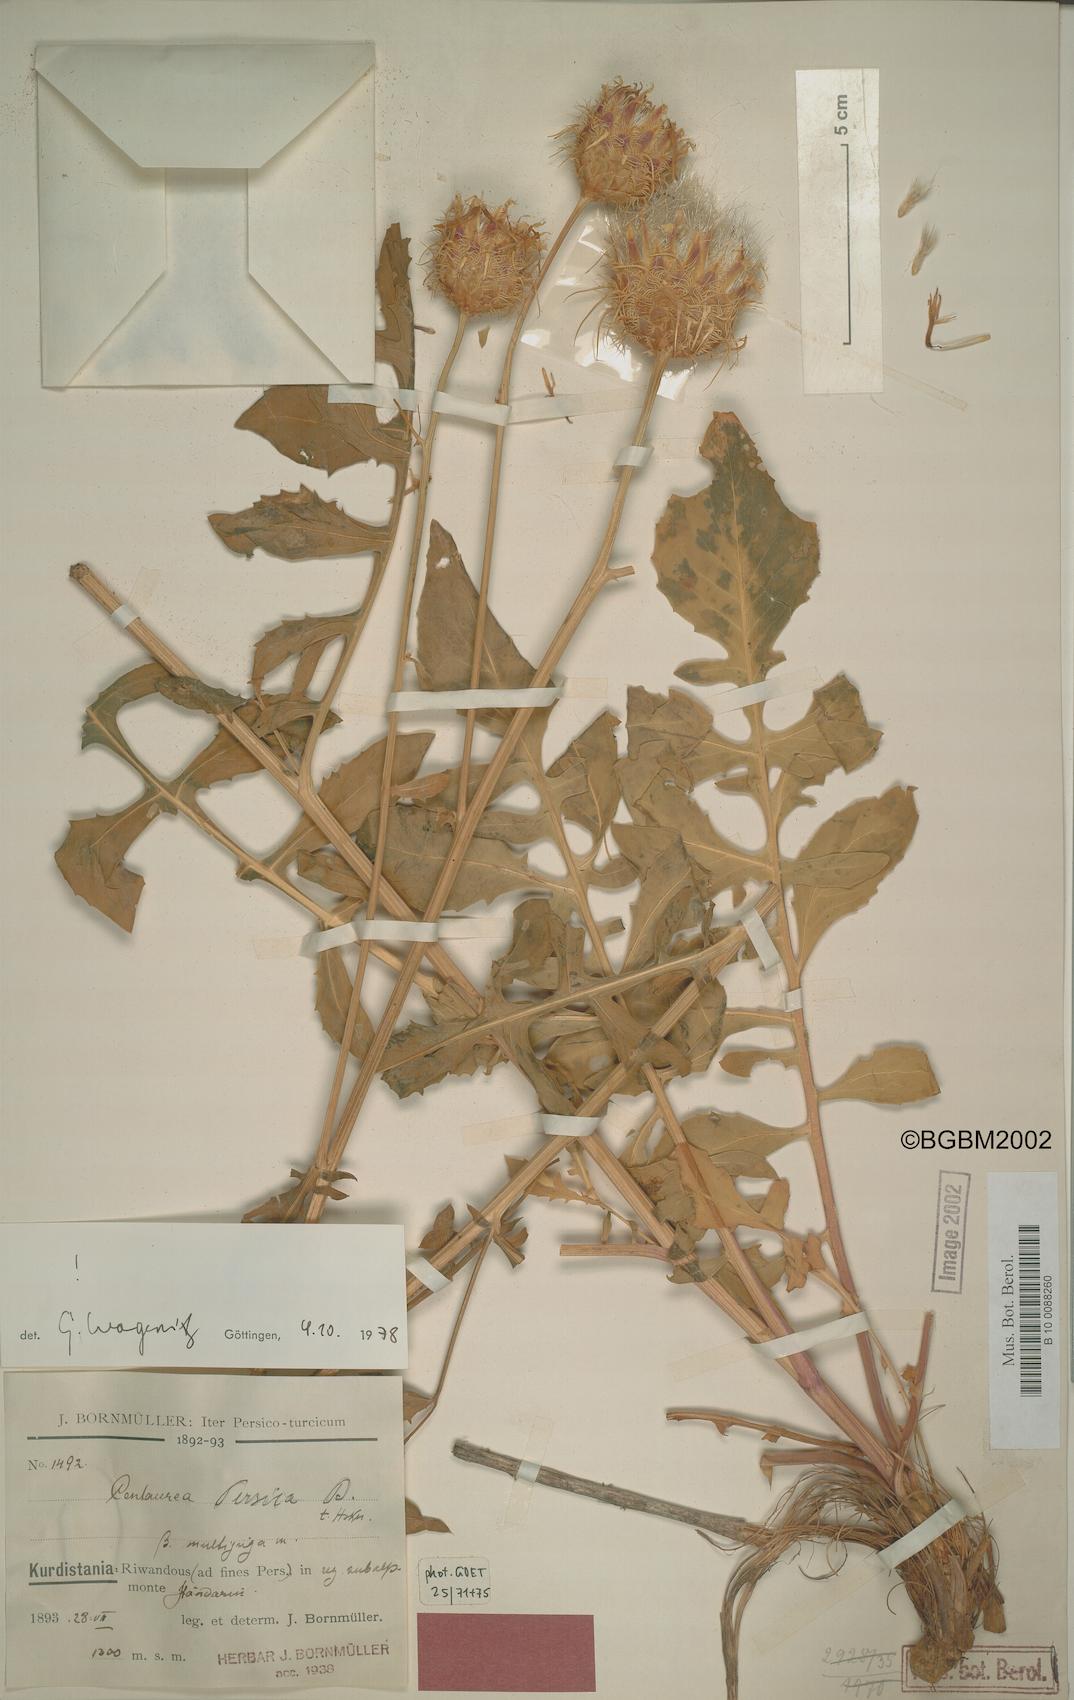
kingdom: Plantae
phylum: Tracheophyta
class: Magnoliopsida
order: Asterales
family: Asteraceae
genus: Centaurea
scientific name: Centaurea persica
